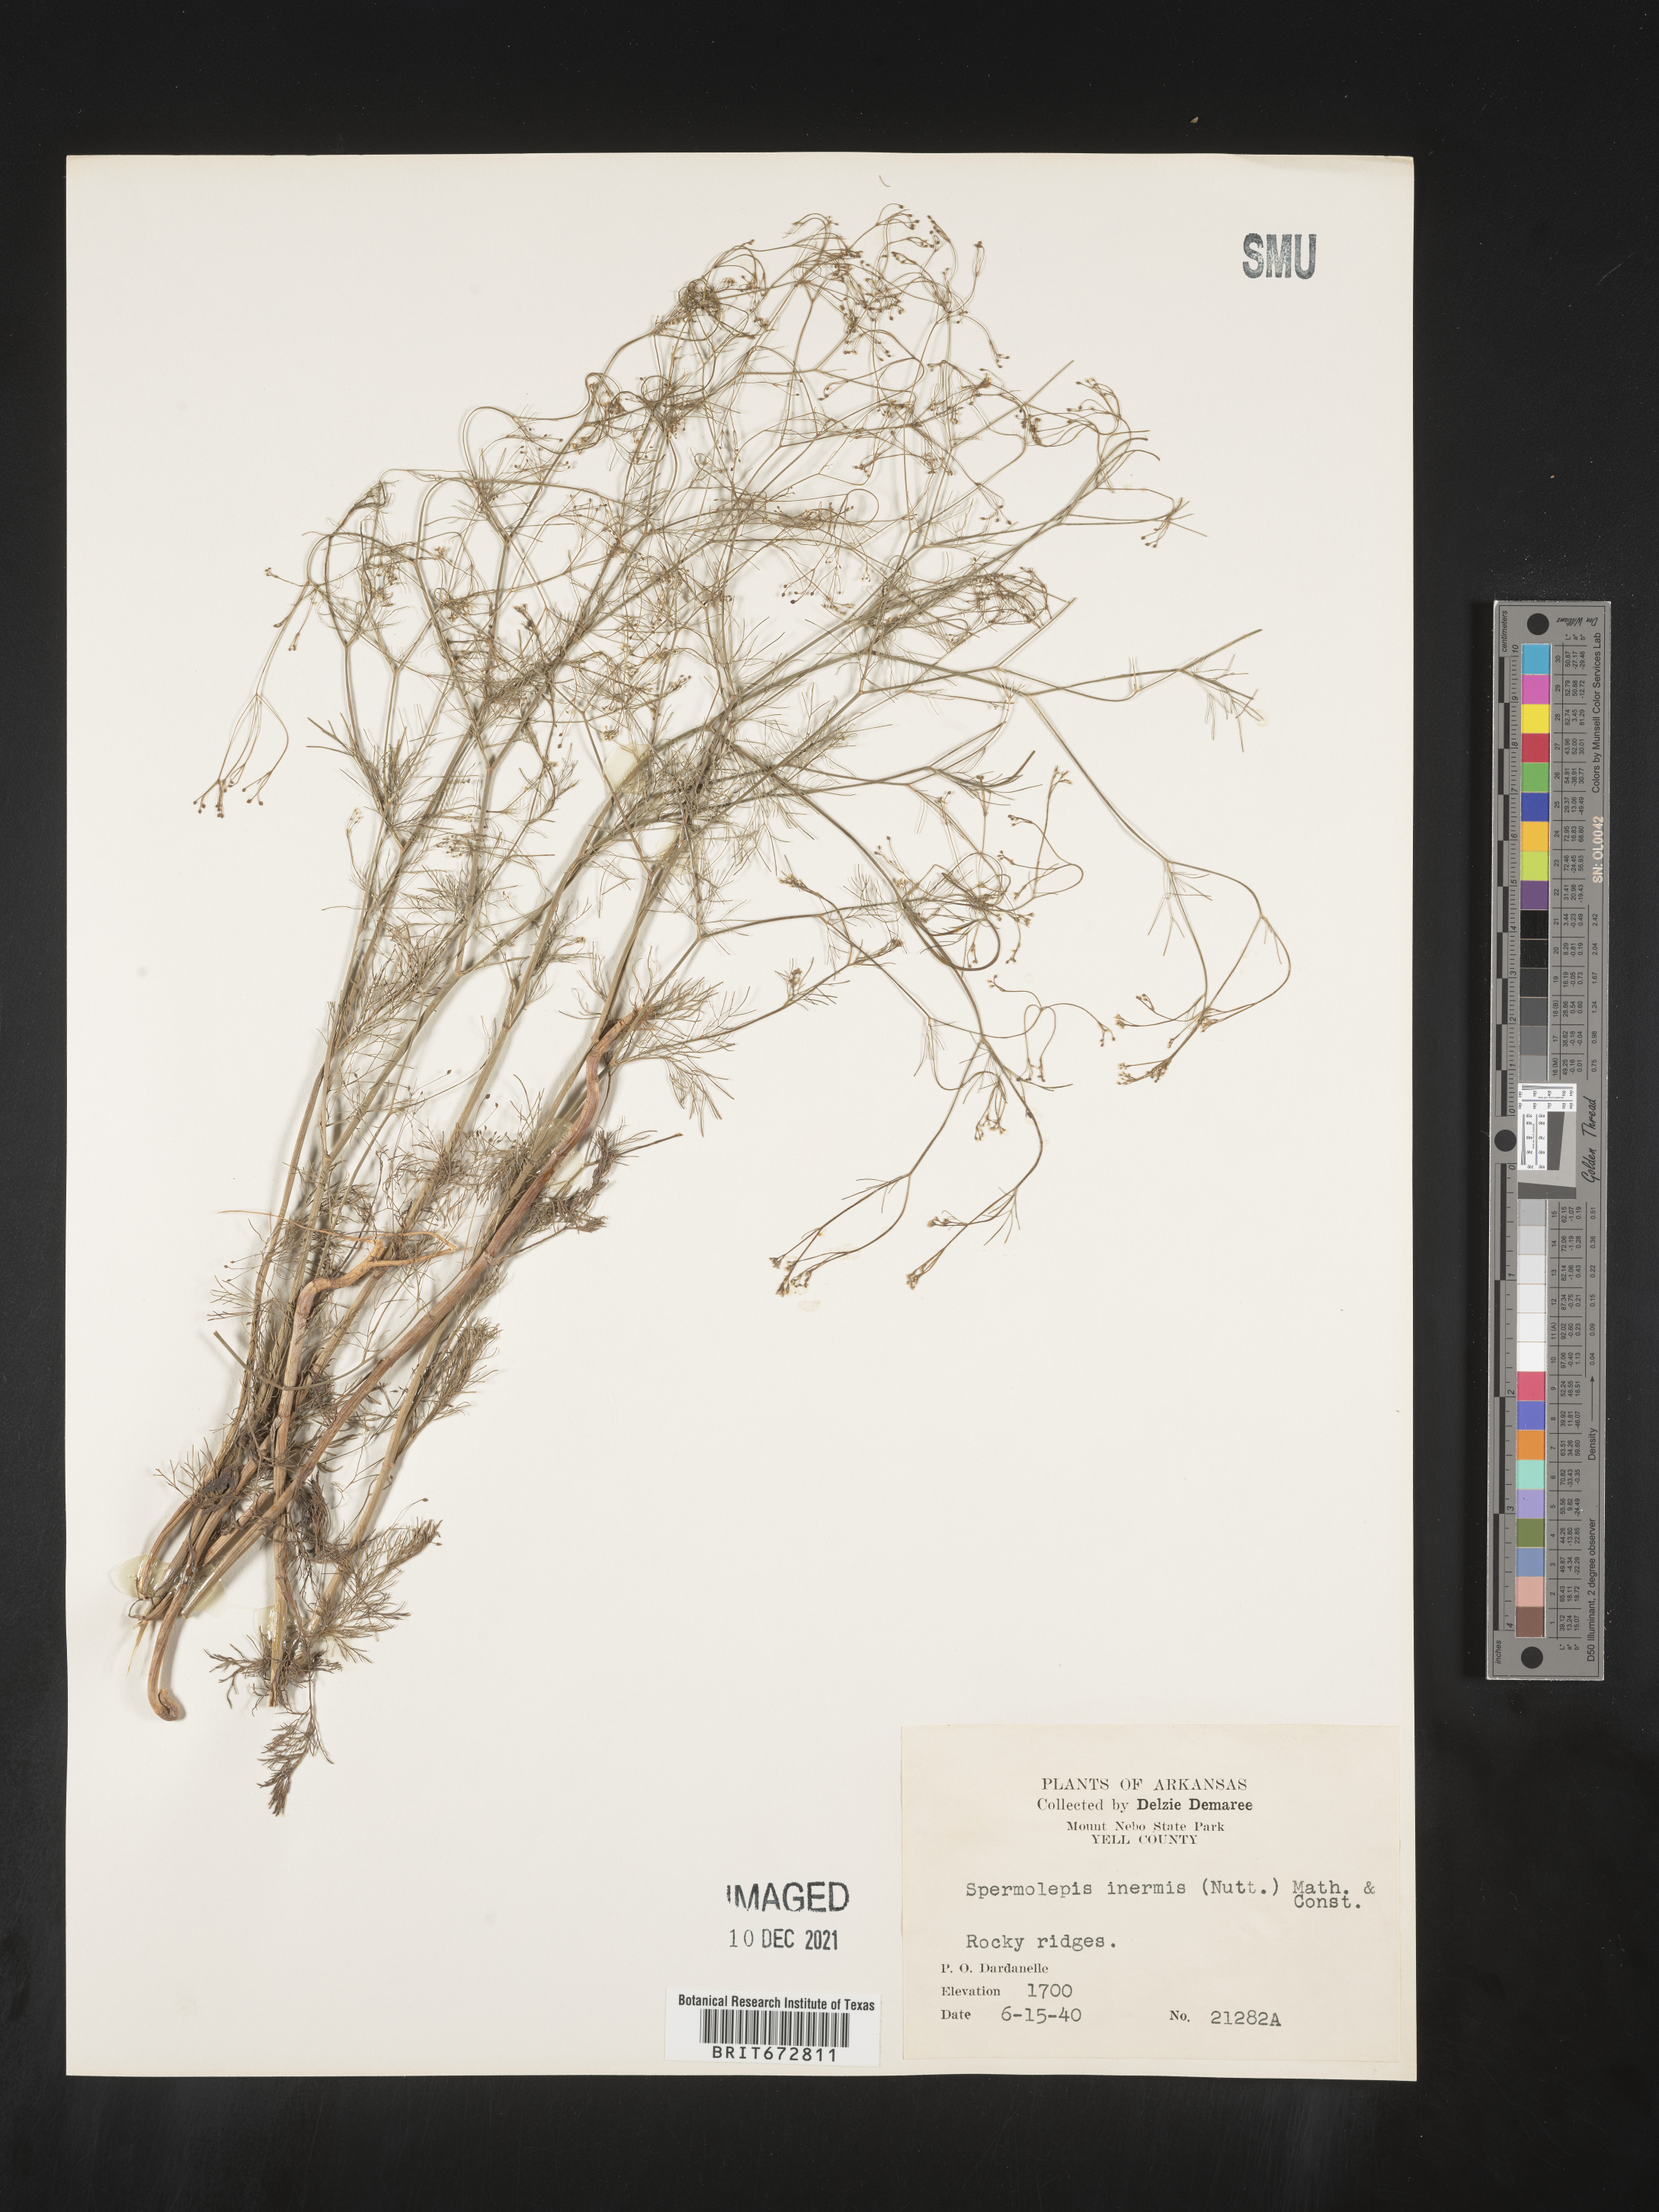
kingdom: Plantae
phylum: Tracheophyta
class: Magnoliopsida
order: Apiales
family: Apiaceae
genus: Spermolepis
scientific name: Spermolepis inermis
